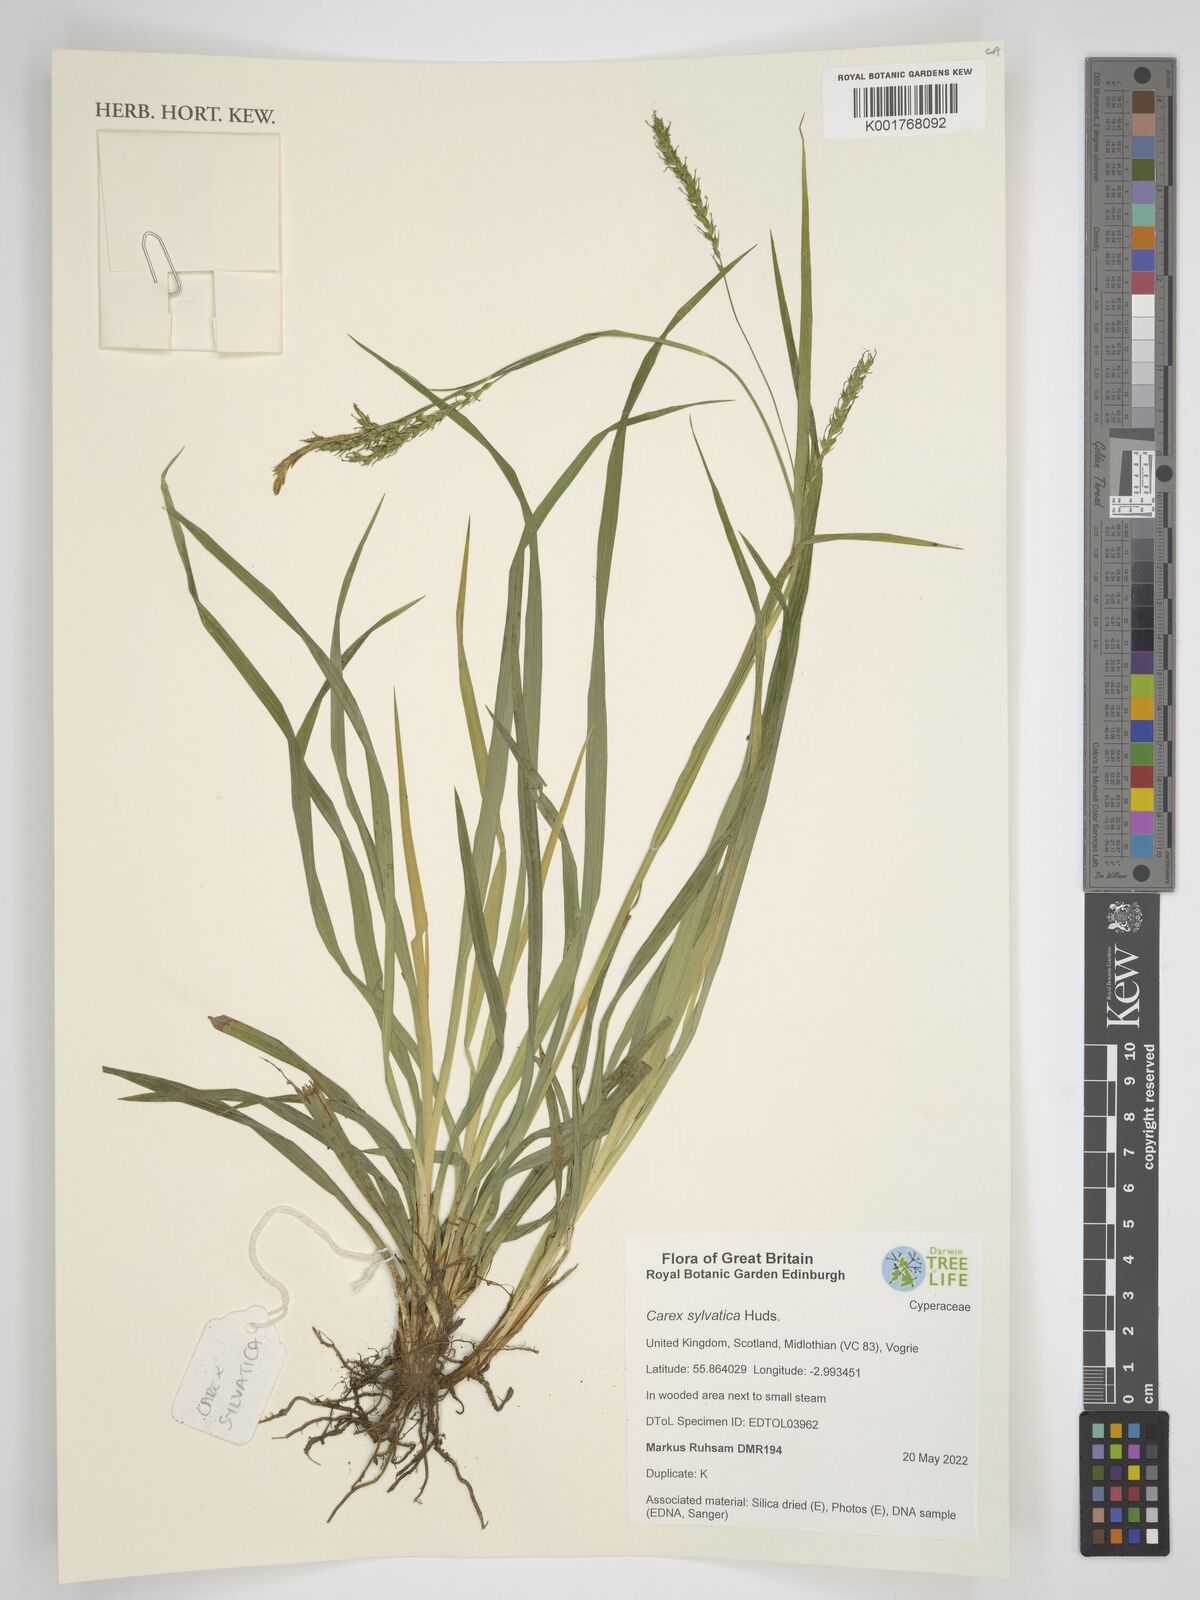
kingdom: Plantae
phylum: Tracheophyta
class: Liliopsida
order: Poales
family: Cyperaceae
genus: Carex
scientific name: Carex sylvatica
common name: Wood-sedge
